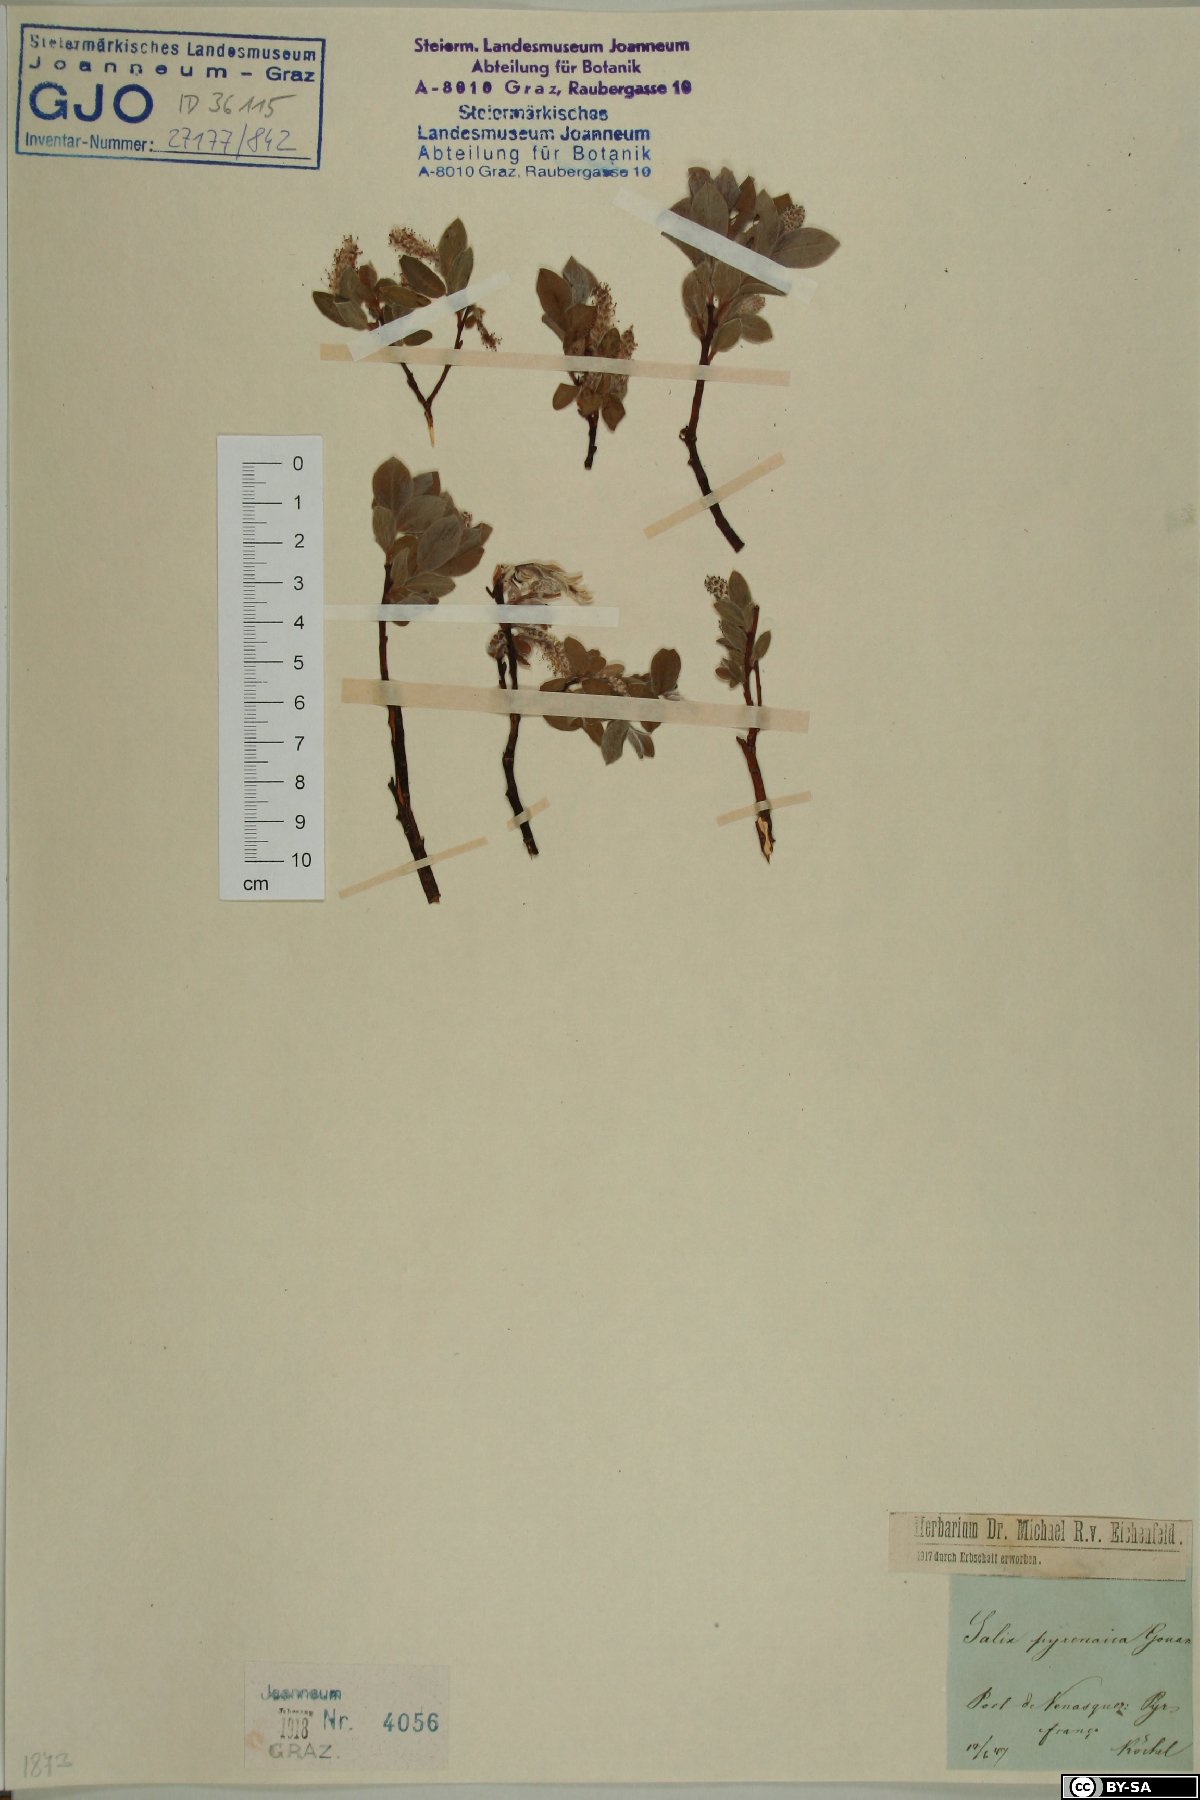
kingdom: Plantae
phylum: Tracheophyta
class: Magnoliopsida
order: Malpighiales
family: Salicaceae
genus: Salix
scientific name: Salix pyrenaica
